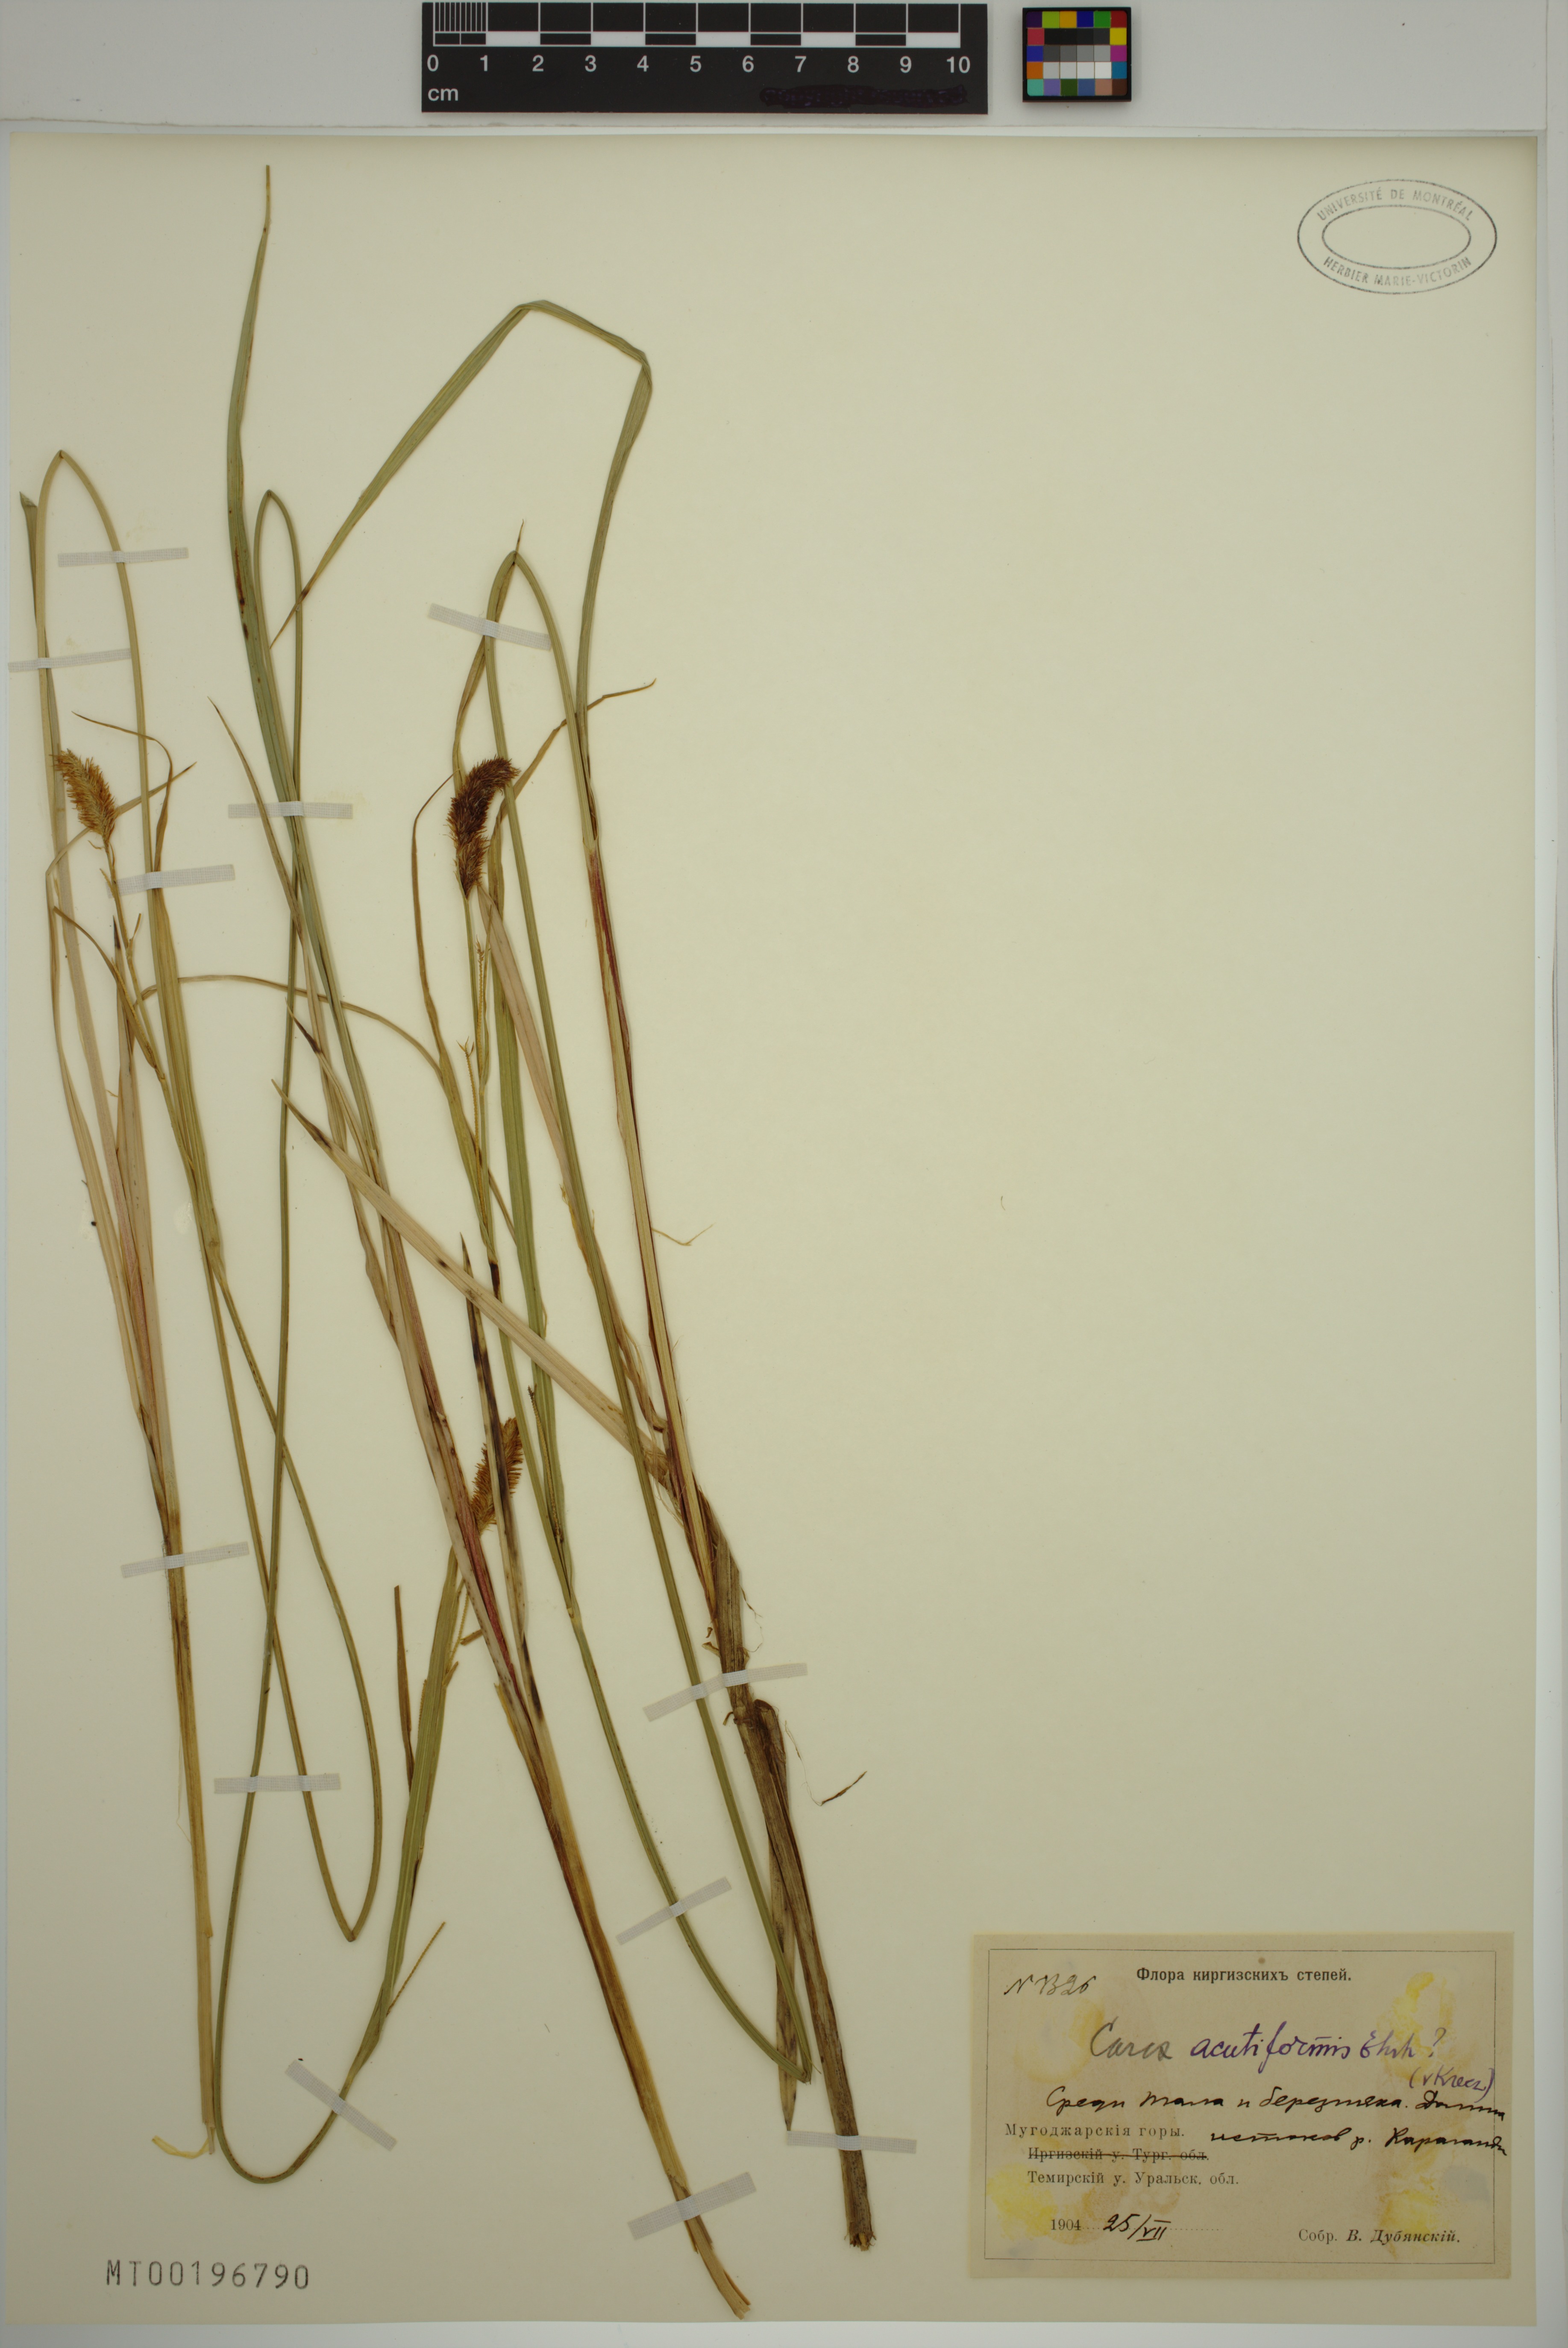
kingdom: Plantae
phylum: Tracheophyta
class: Liliopsida
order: Poales
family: Cyperaceae
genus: Carex
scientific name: Carex acutiformis
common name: Lesser pond-sedge
